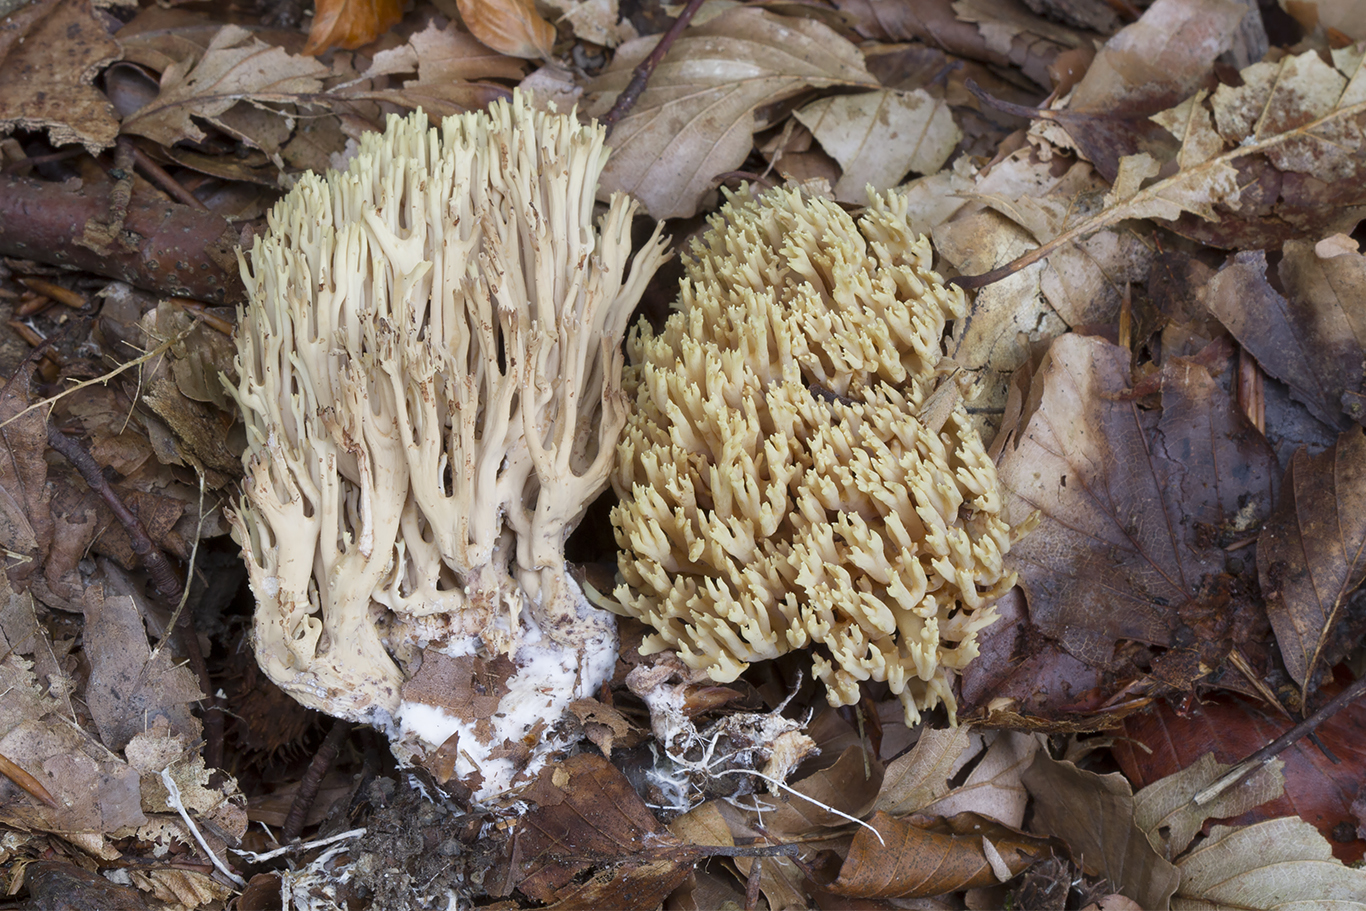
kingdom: Fungi
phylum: Basidiomycota
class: Agaricomycetes
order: Gomphales
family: Gomphaceae
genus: Ramaria
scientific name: Ramaria stricta
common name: rank koralsvamp
